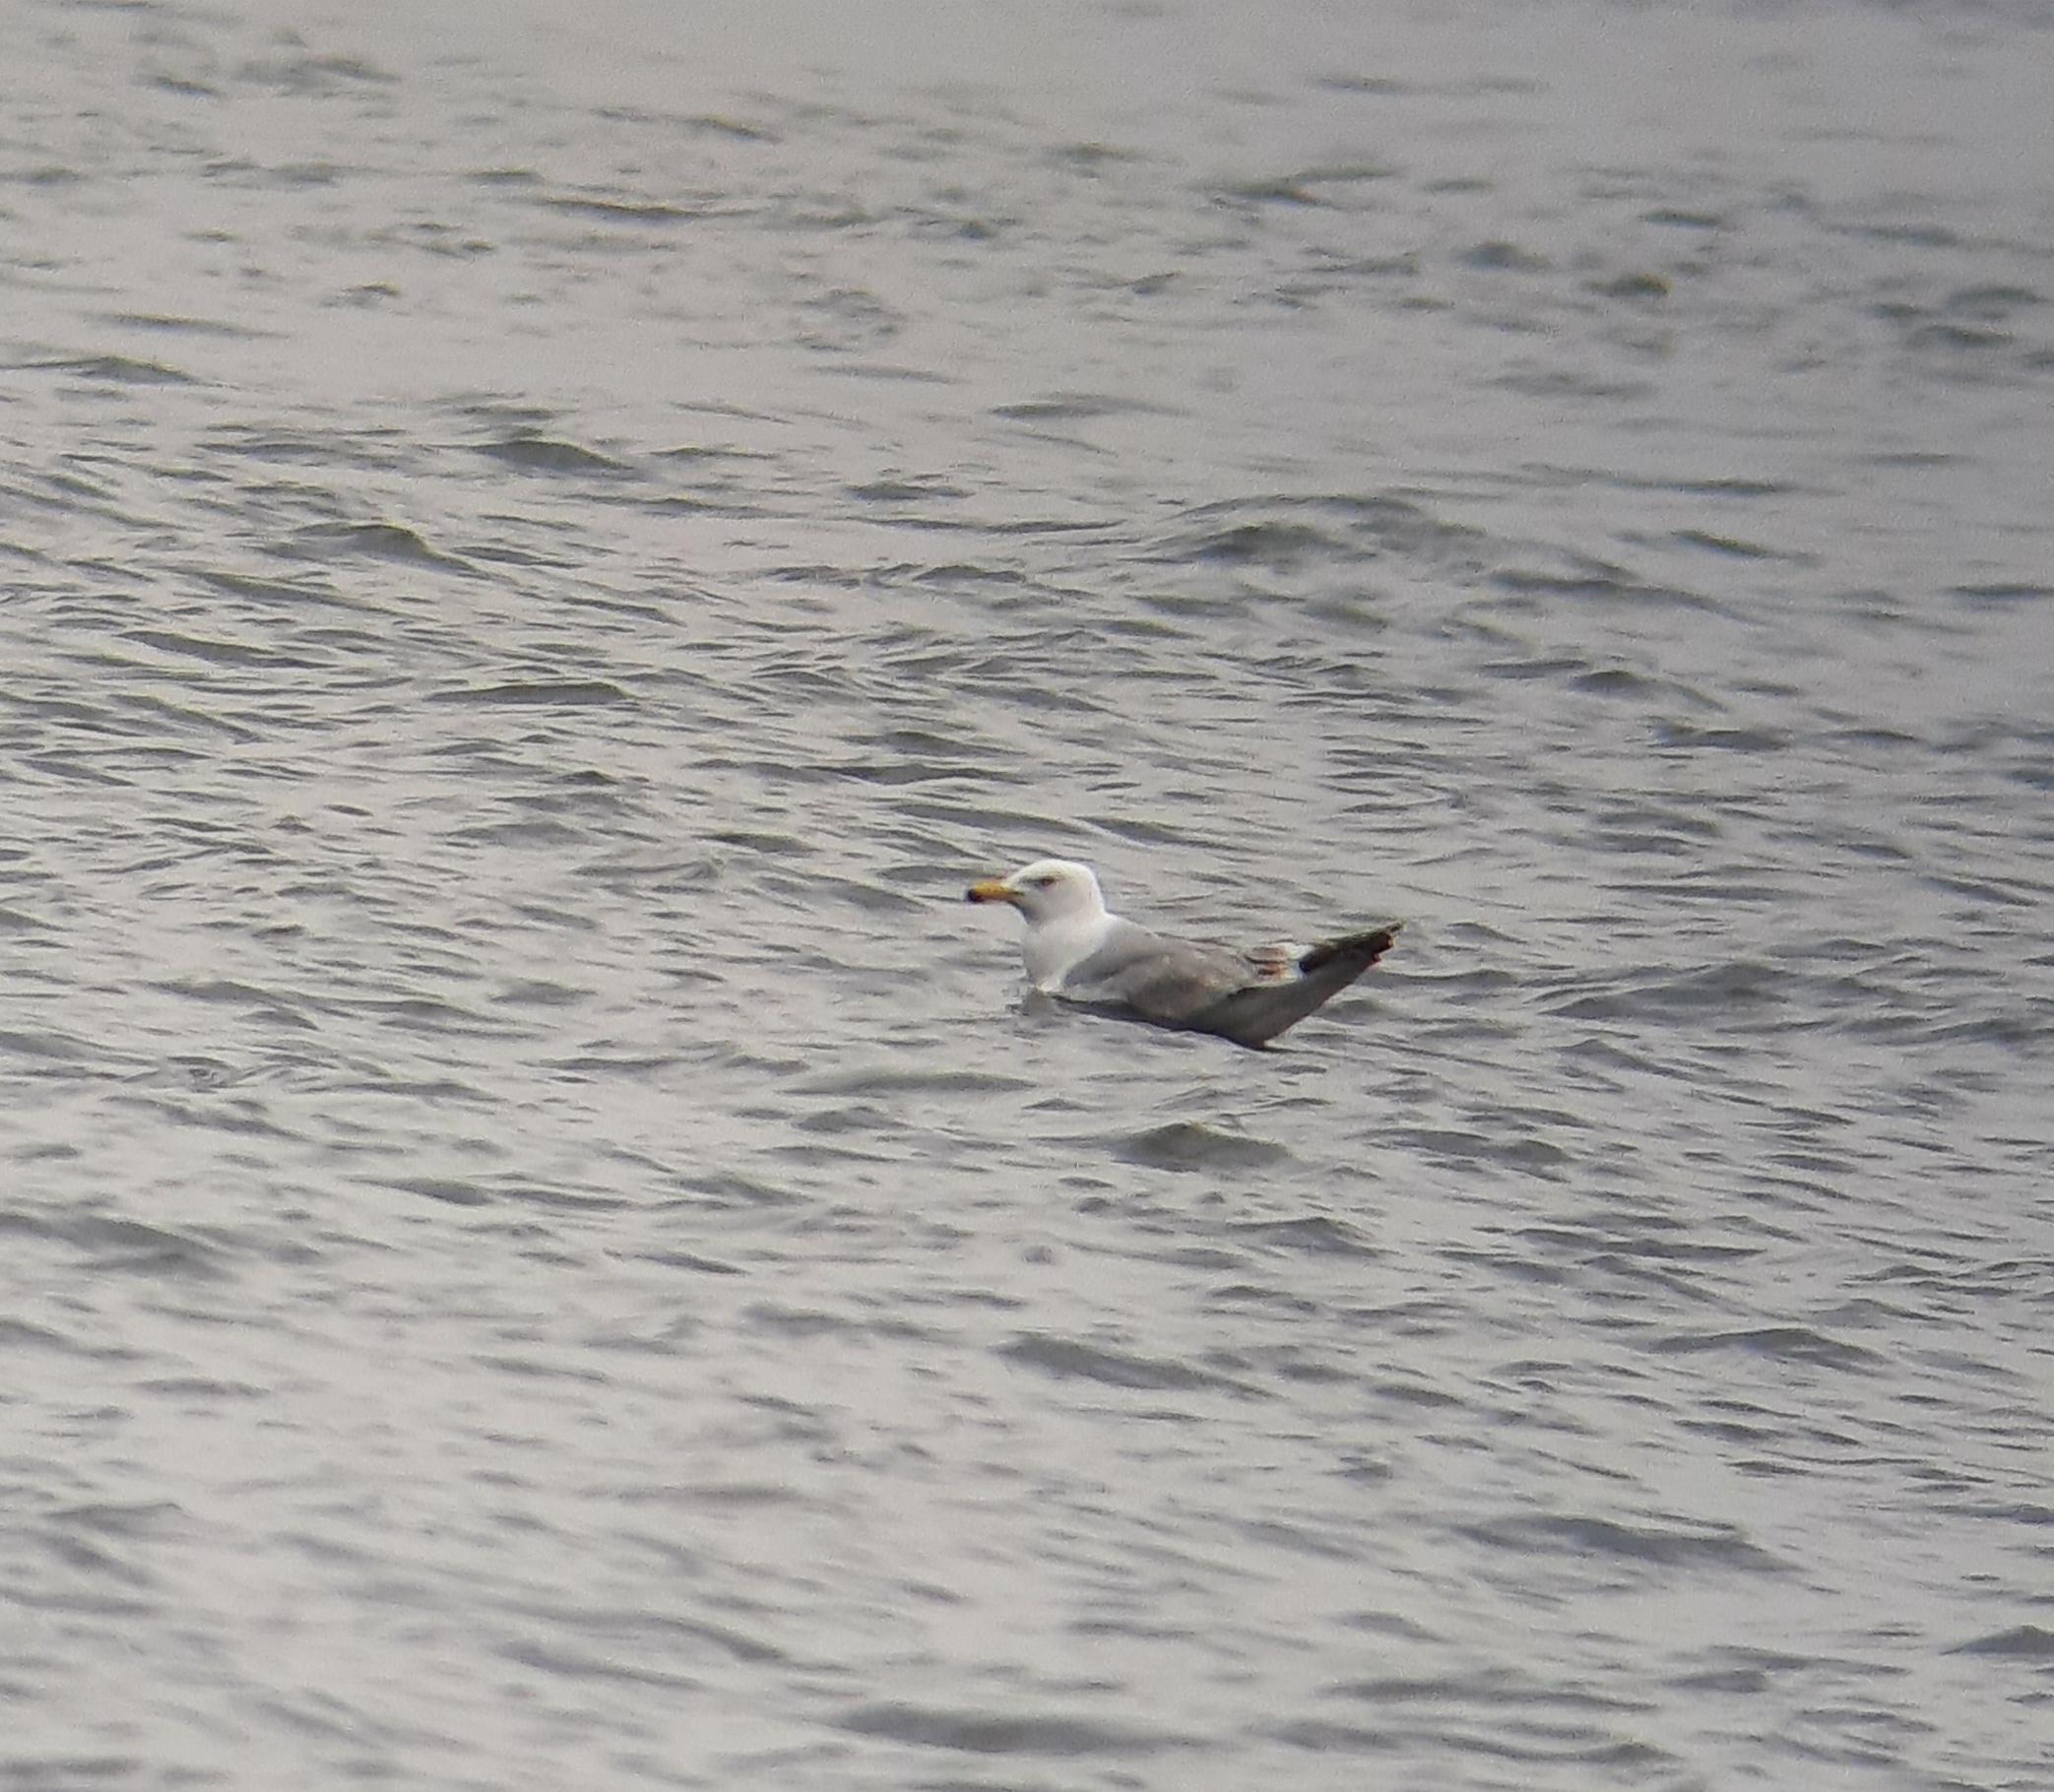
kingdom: Animalia
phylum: Chordata
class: Aves
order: Charadriiformes
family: Laridae
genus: Larus
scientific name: Larus argentatus
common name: Sølvmåge
